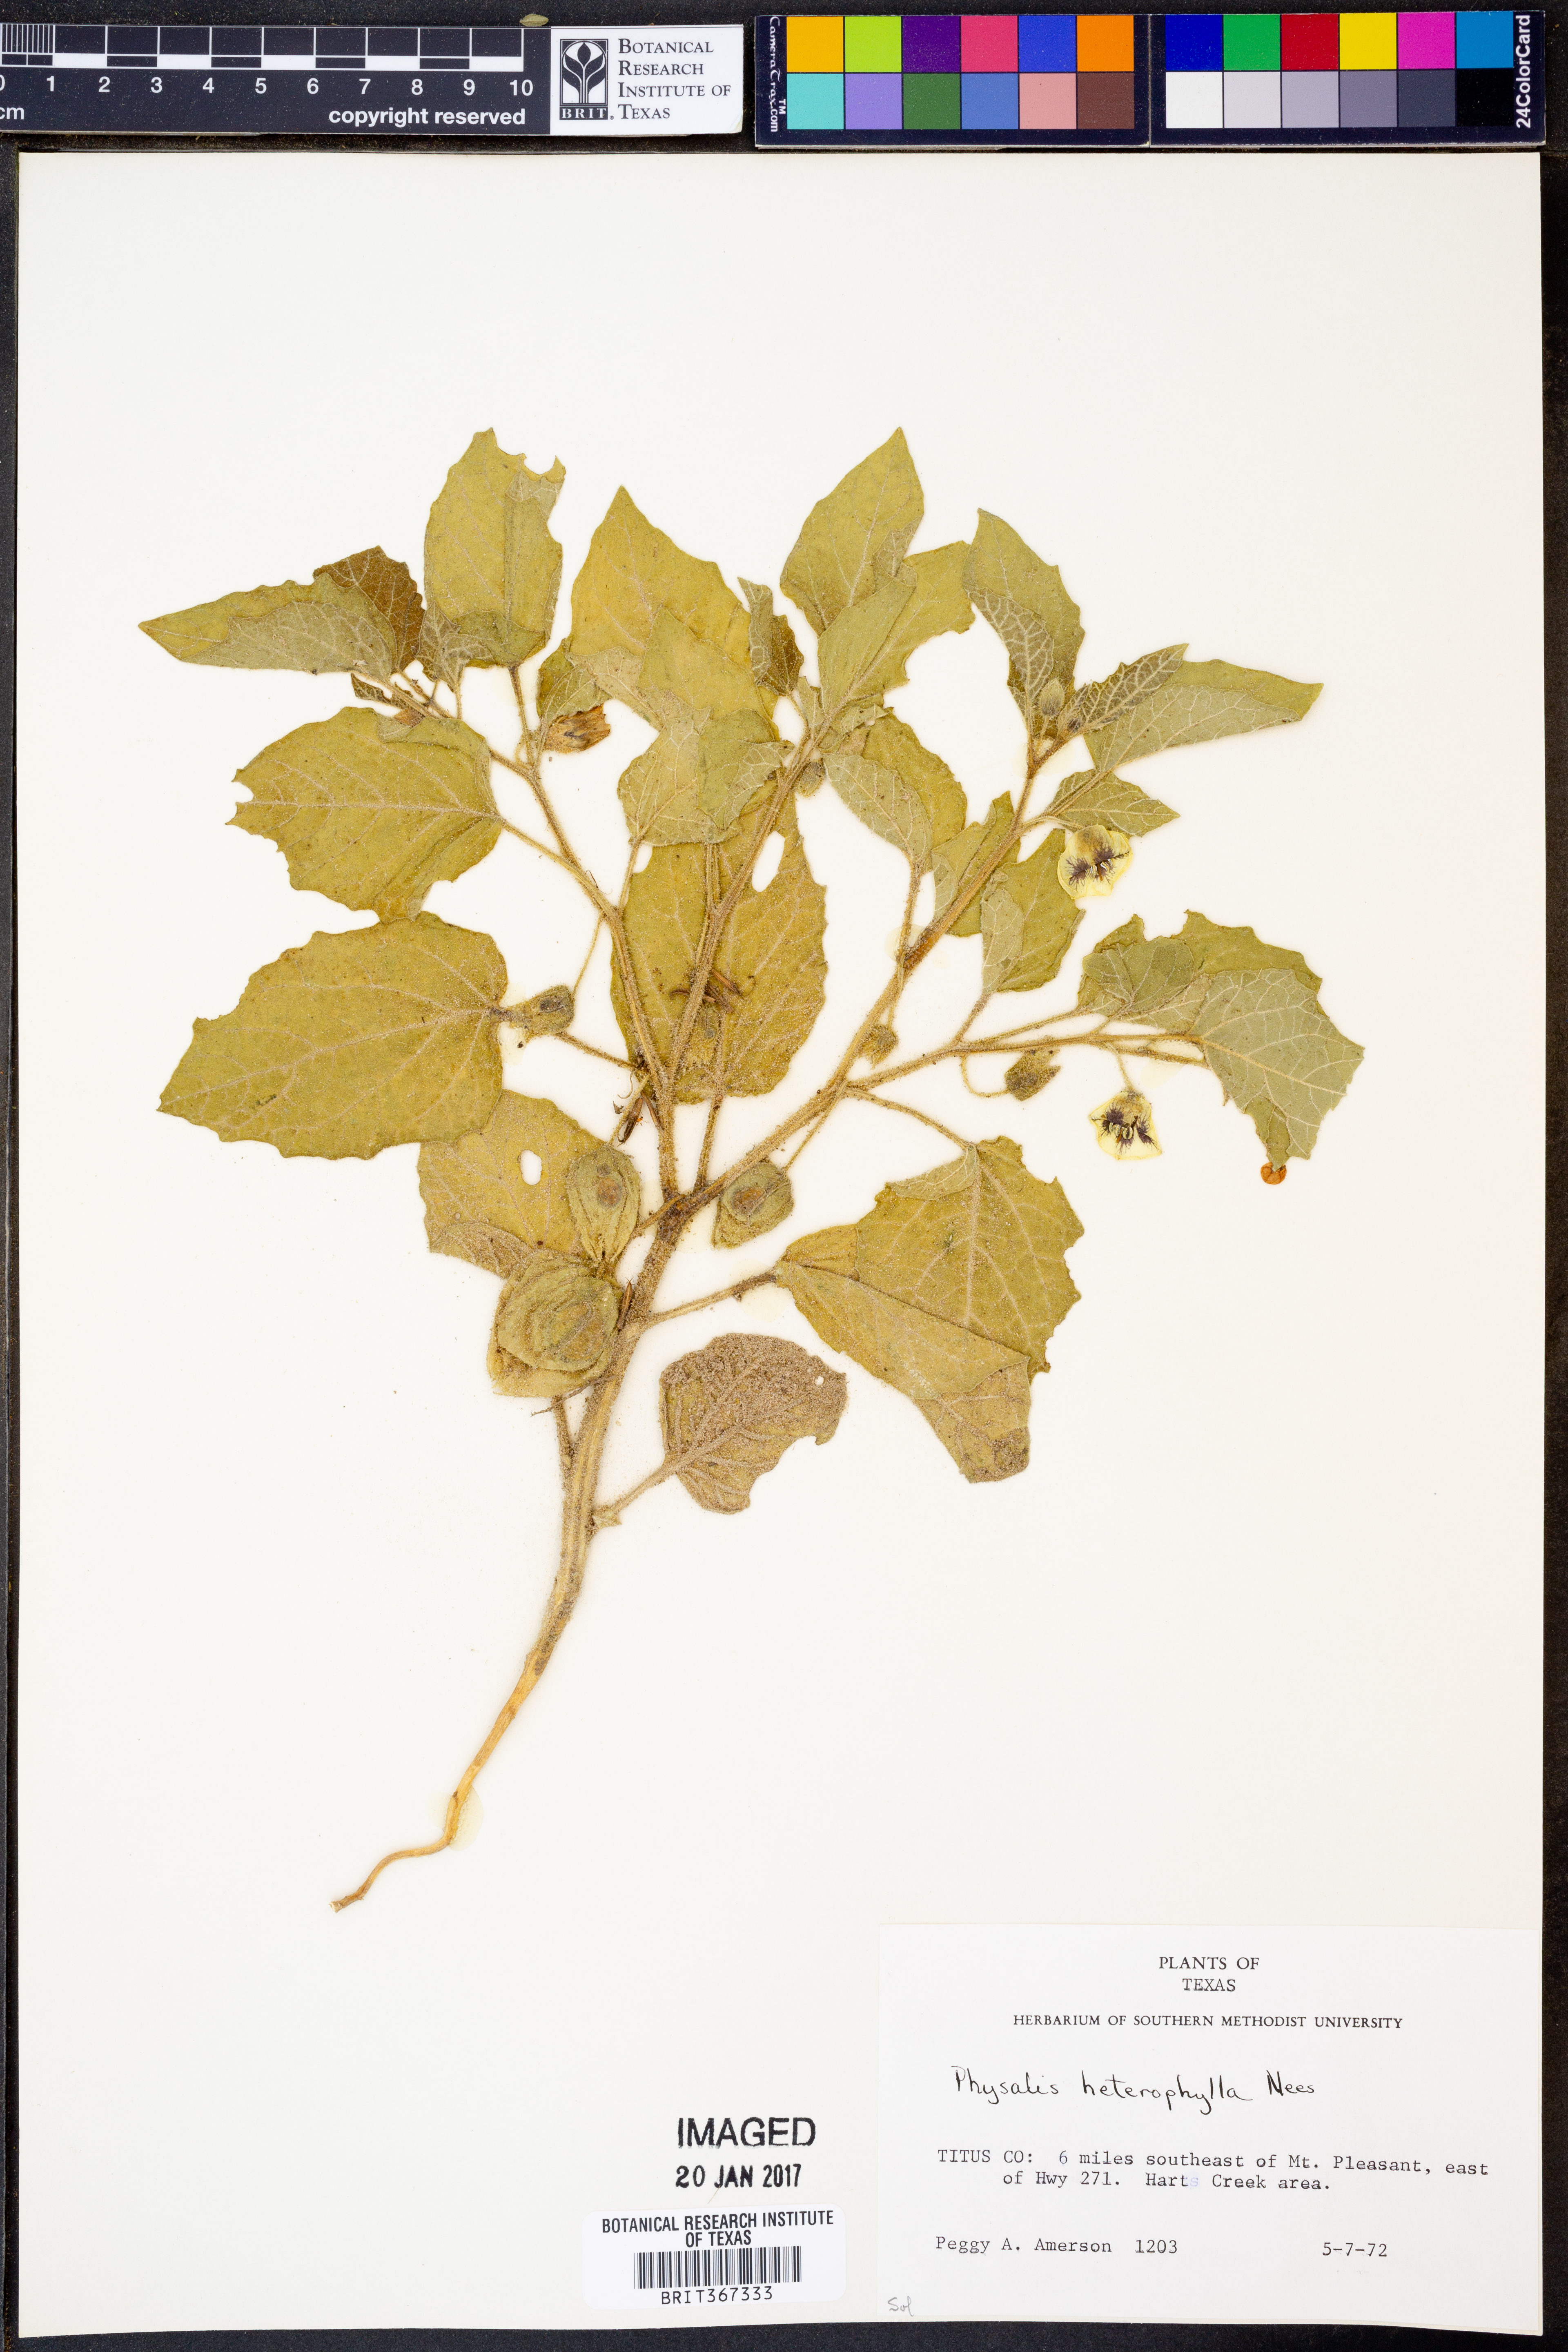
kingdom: Plantae
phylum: Tracheophyta
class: Magnoliopsida
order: Solanales
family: Solanaceae
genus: Physalis
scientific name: Physalis heterophylla
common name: Clammy ground-cherry
